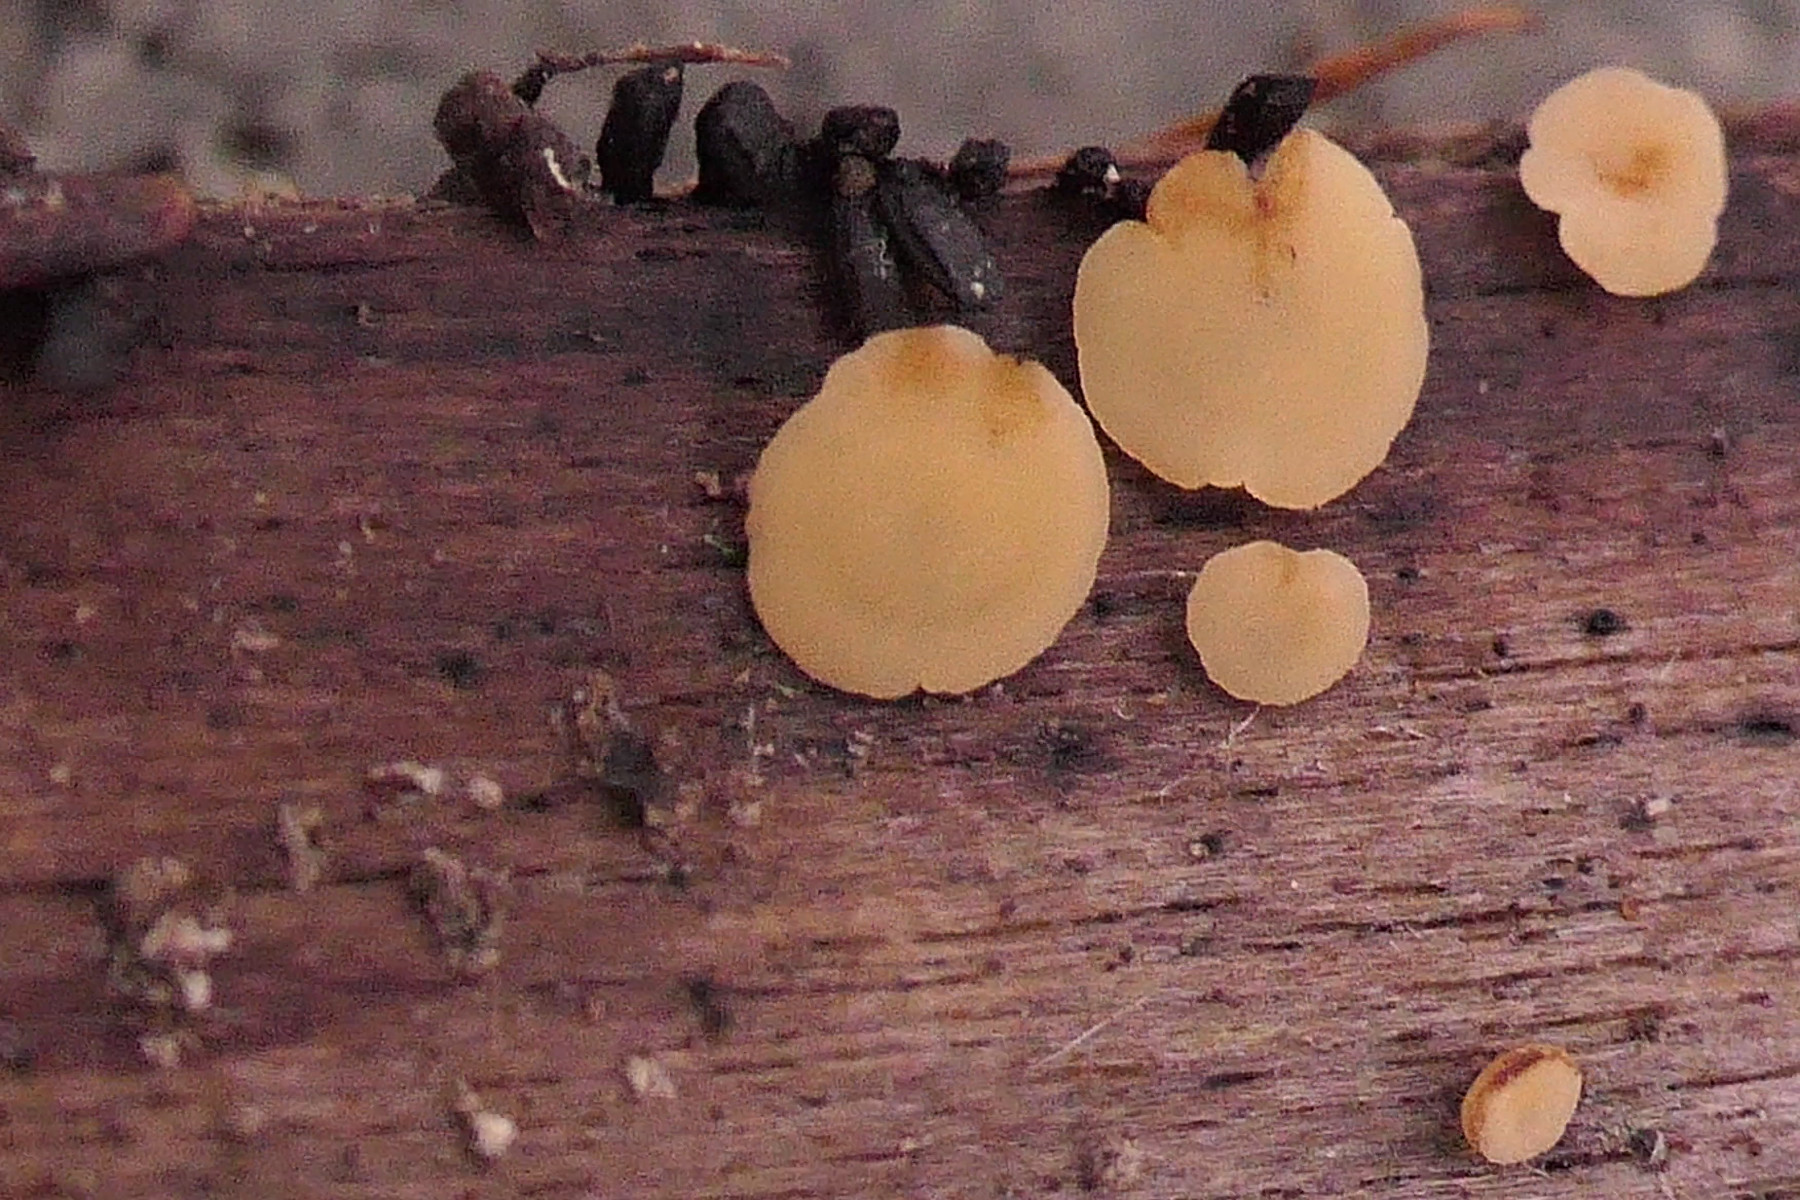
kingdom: Fungi
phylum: Ascomycota
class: Eurotiomycetes
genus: Glyphium
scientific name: Glyphium elatum
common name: kuløkse
